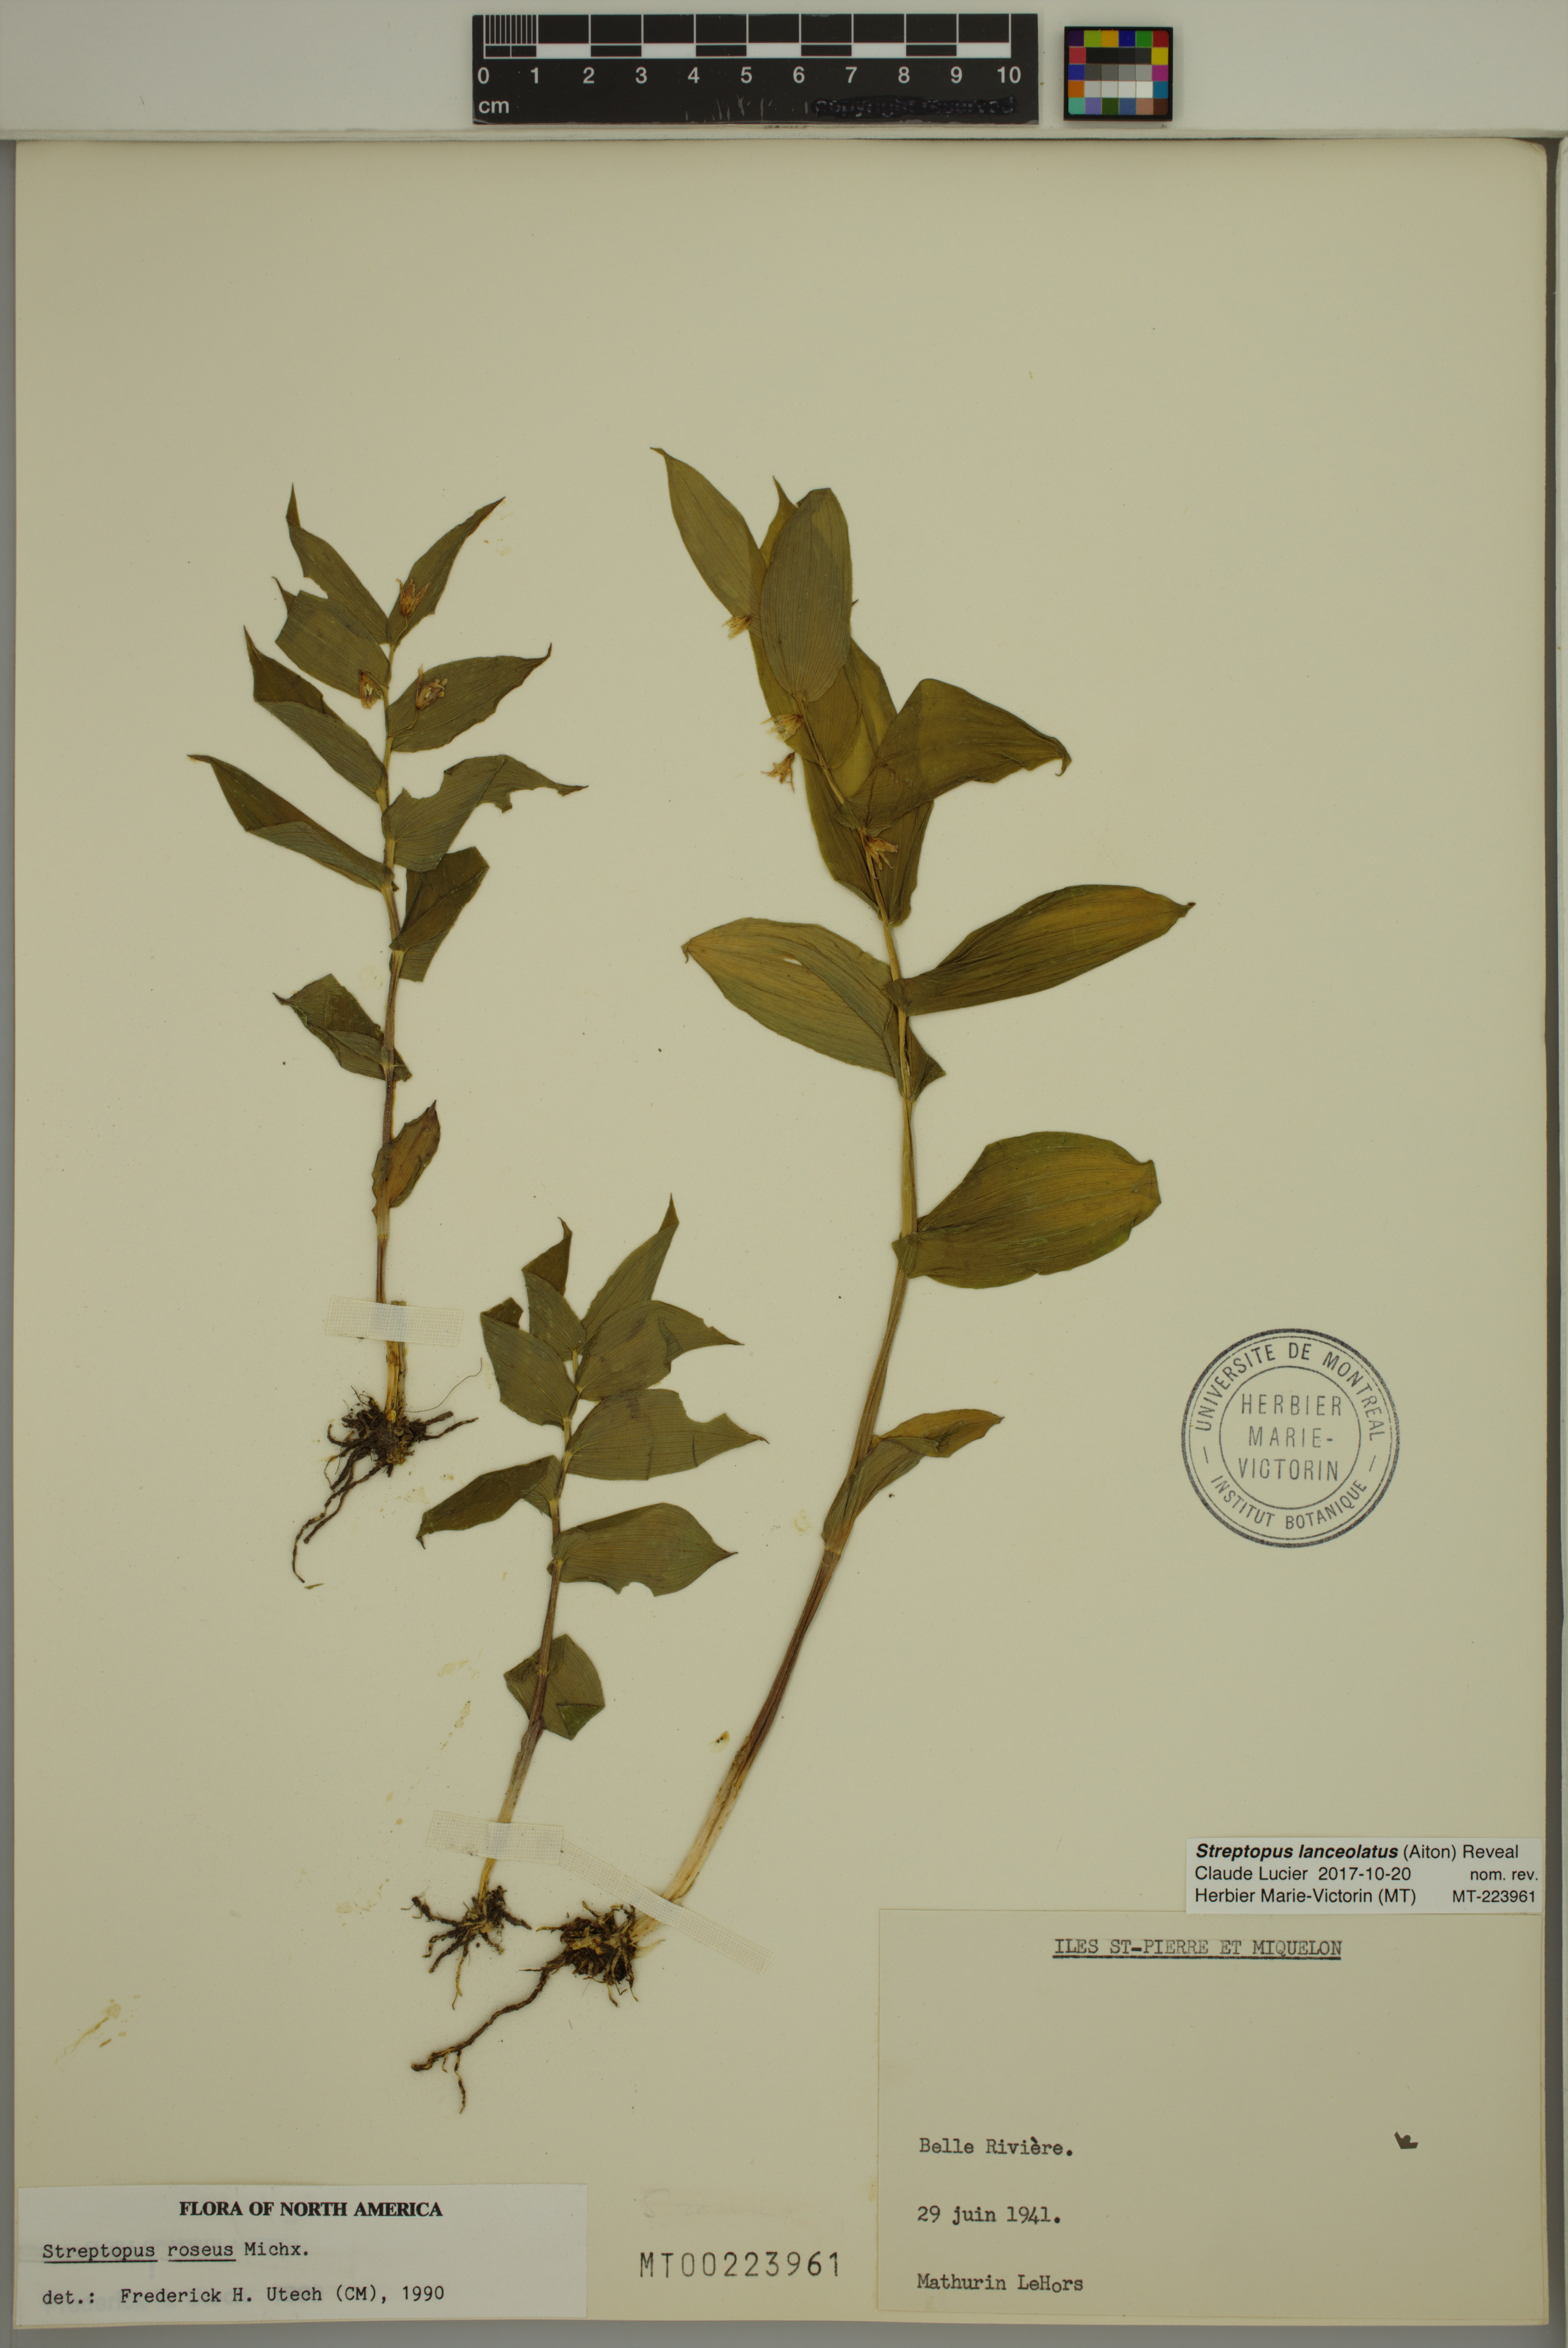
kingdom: Plantae
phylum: Tracheophyta
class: Liliopsida
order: Liliales
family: Liliaceae
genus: Streptopus
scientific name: Streptopus lanceolatus
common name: Rose mandarin
